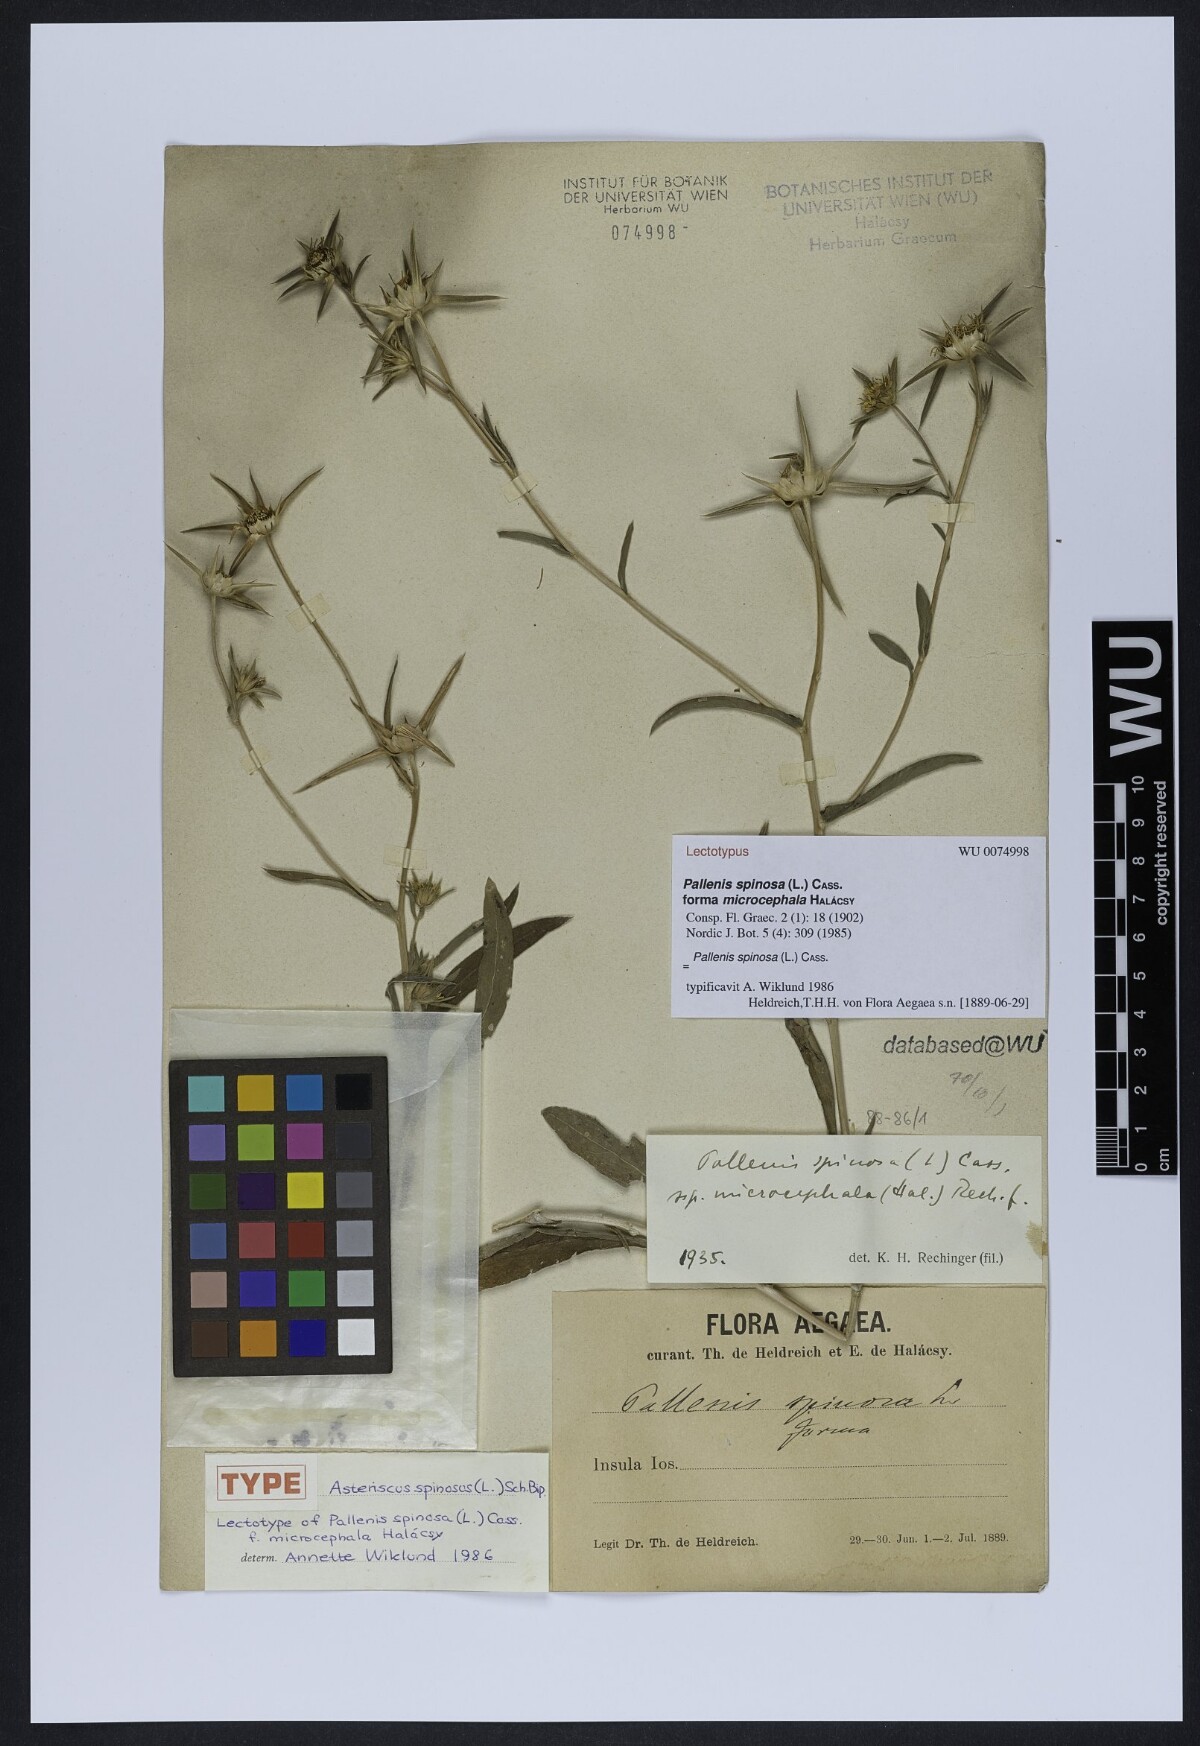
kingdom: Plantae
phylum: Tracheophyta
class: Magnoliopsida
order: Asterales
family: Asteraceae
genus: Pallenis
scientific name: Pallenis spinosa
